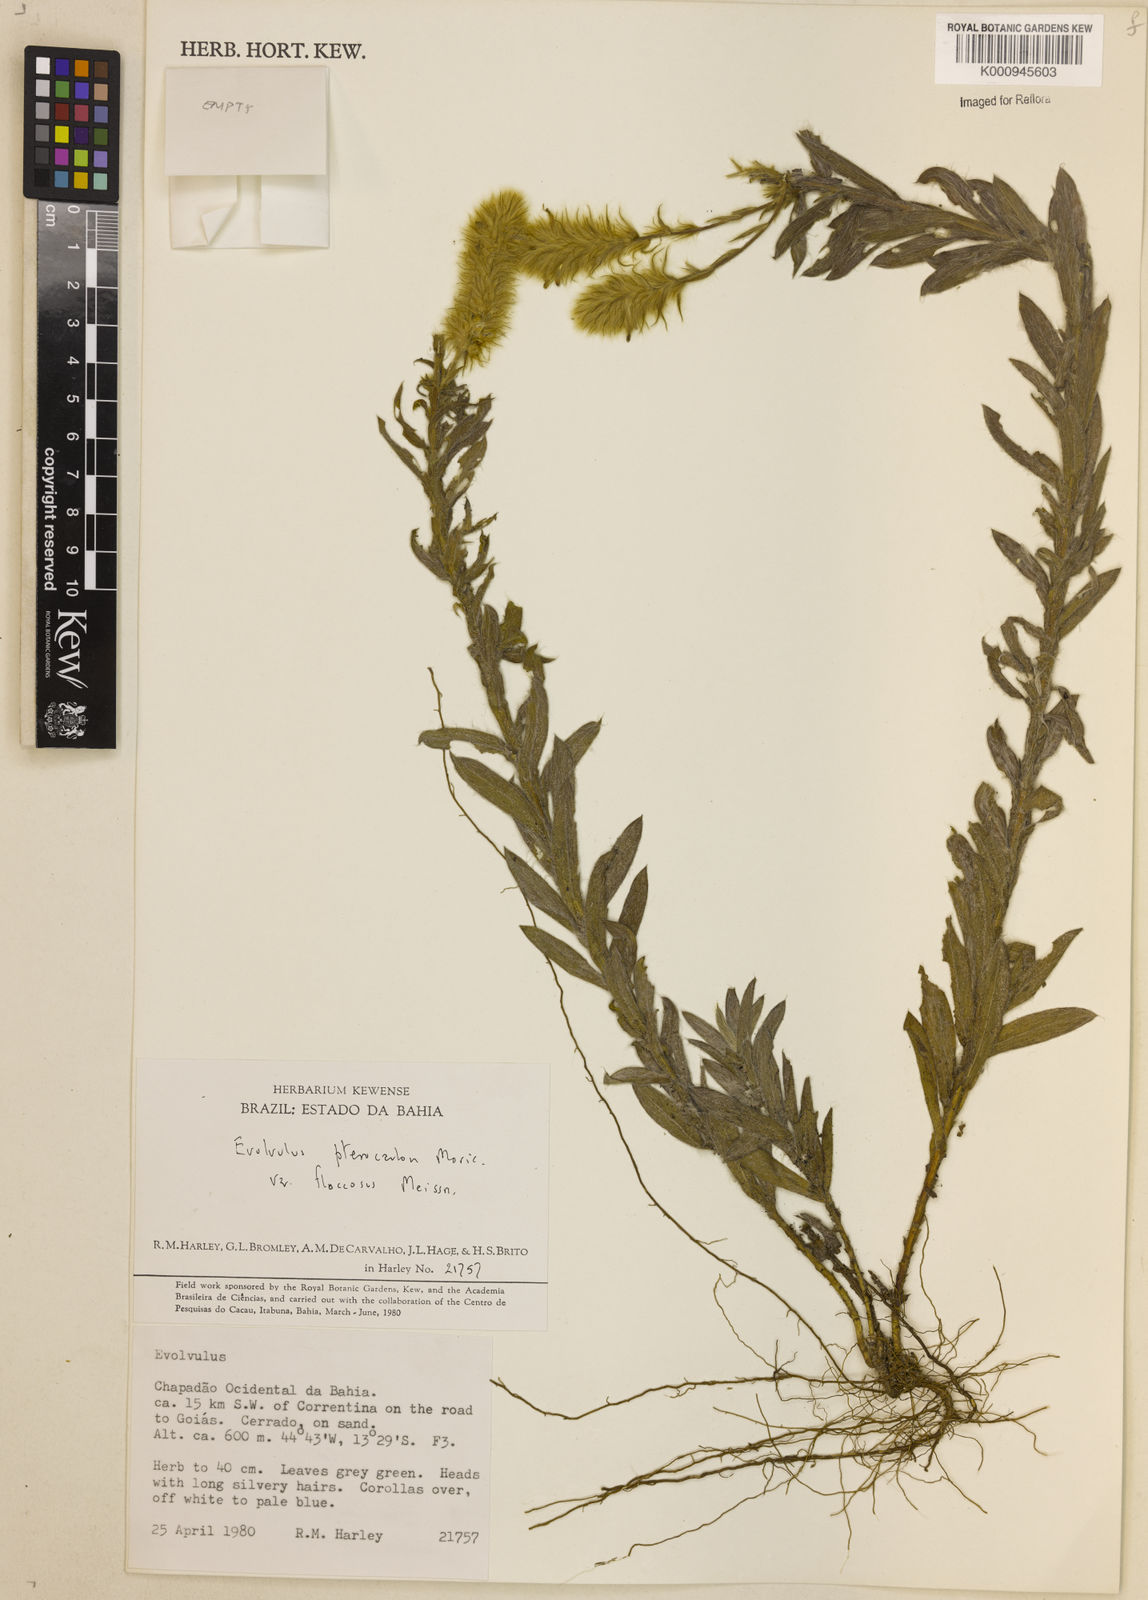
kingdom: Plantae
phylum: Tracheophyta
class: Magnoliopsida
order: Solanales
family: Convolvulaceae
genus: Evolvulus
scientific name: Evolvulus pterocaulon
